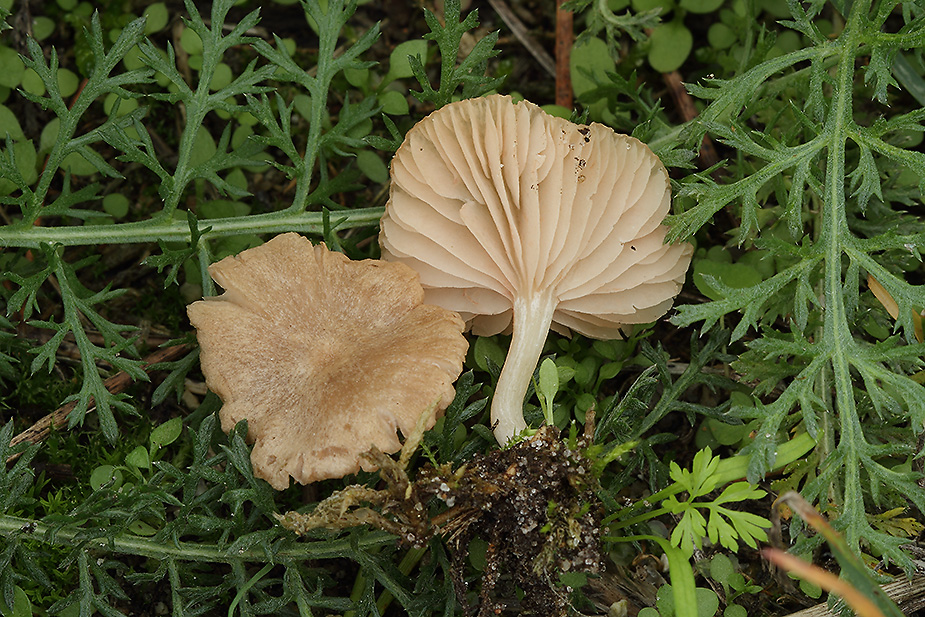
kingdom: Fungi
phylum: Basidiomycota
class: Agaricomycetes
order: Agaricales
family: Entolomataceae
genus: Entoloma
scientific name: Entoloma neglectum
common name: bleg rødblad
